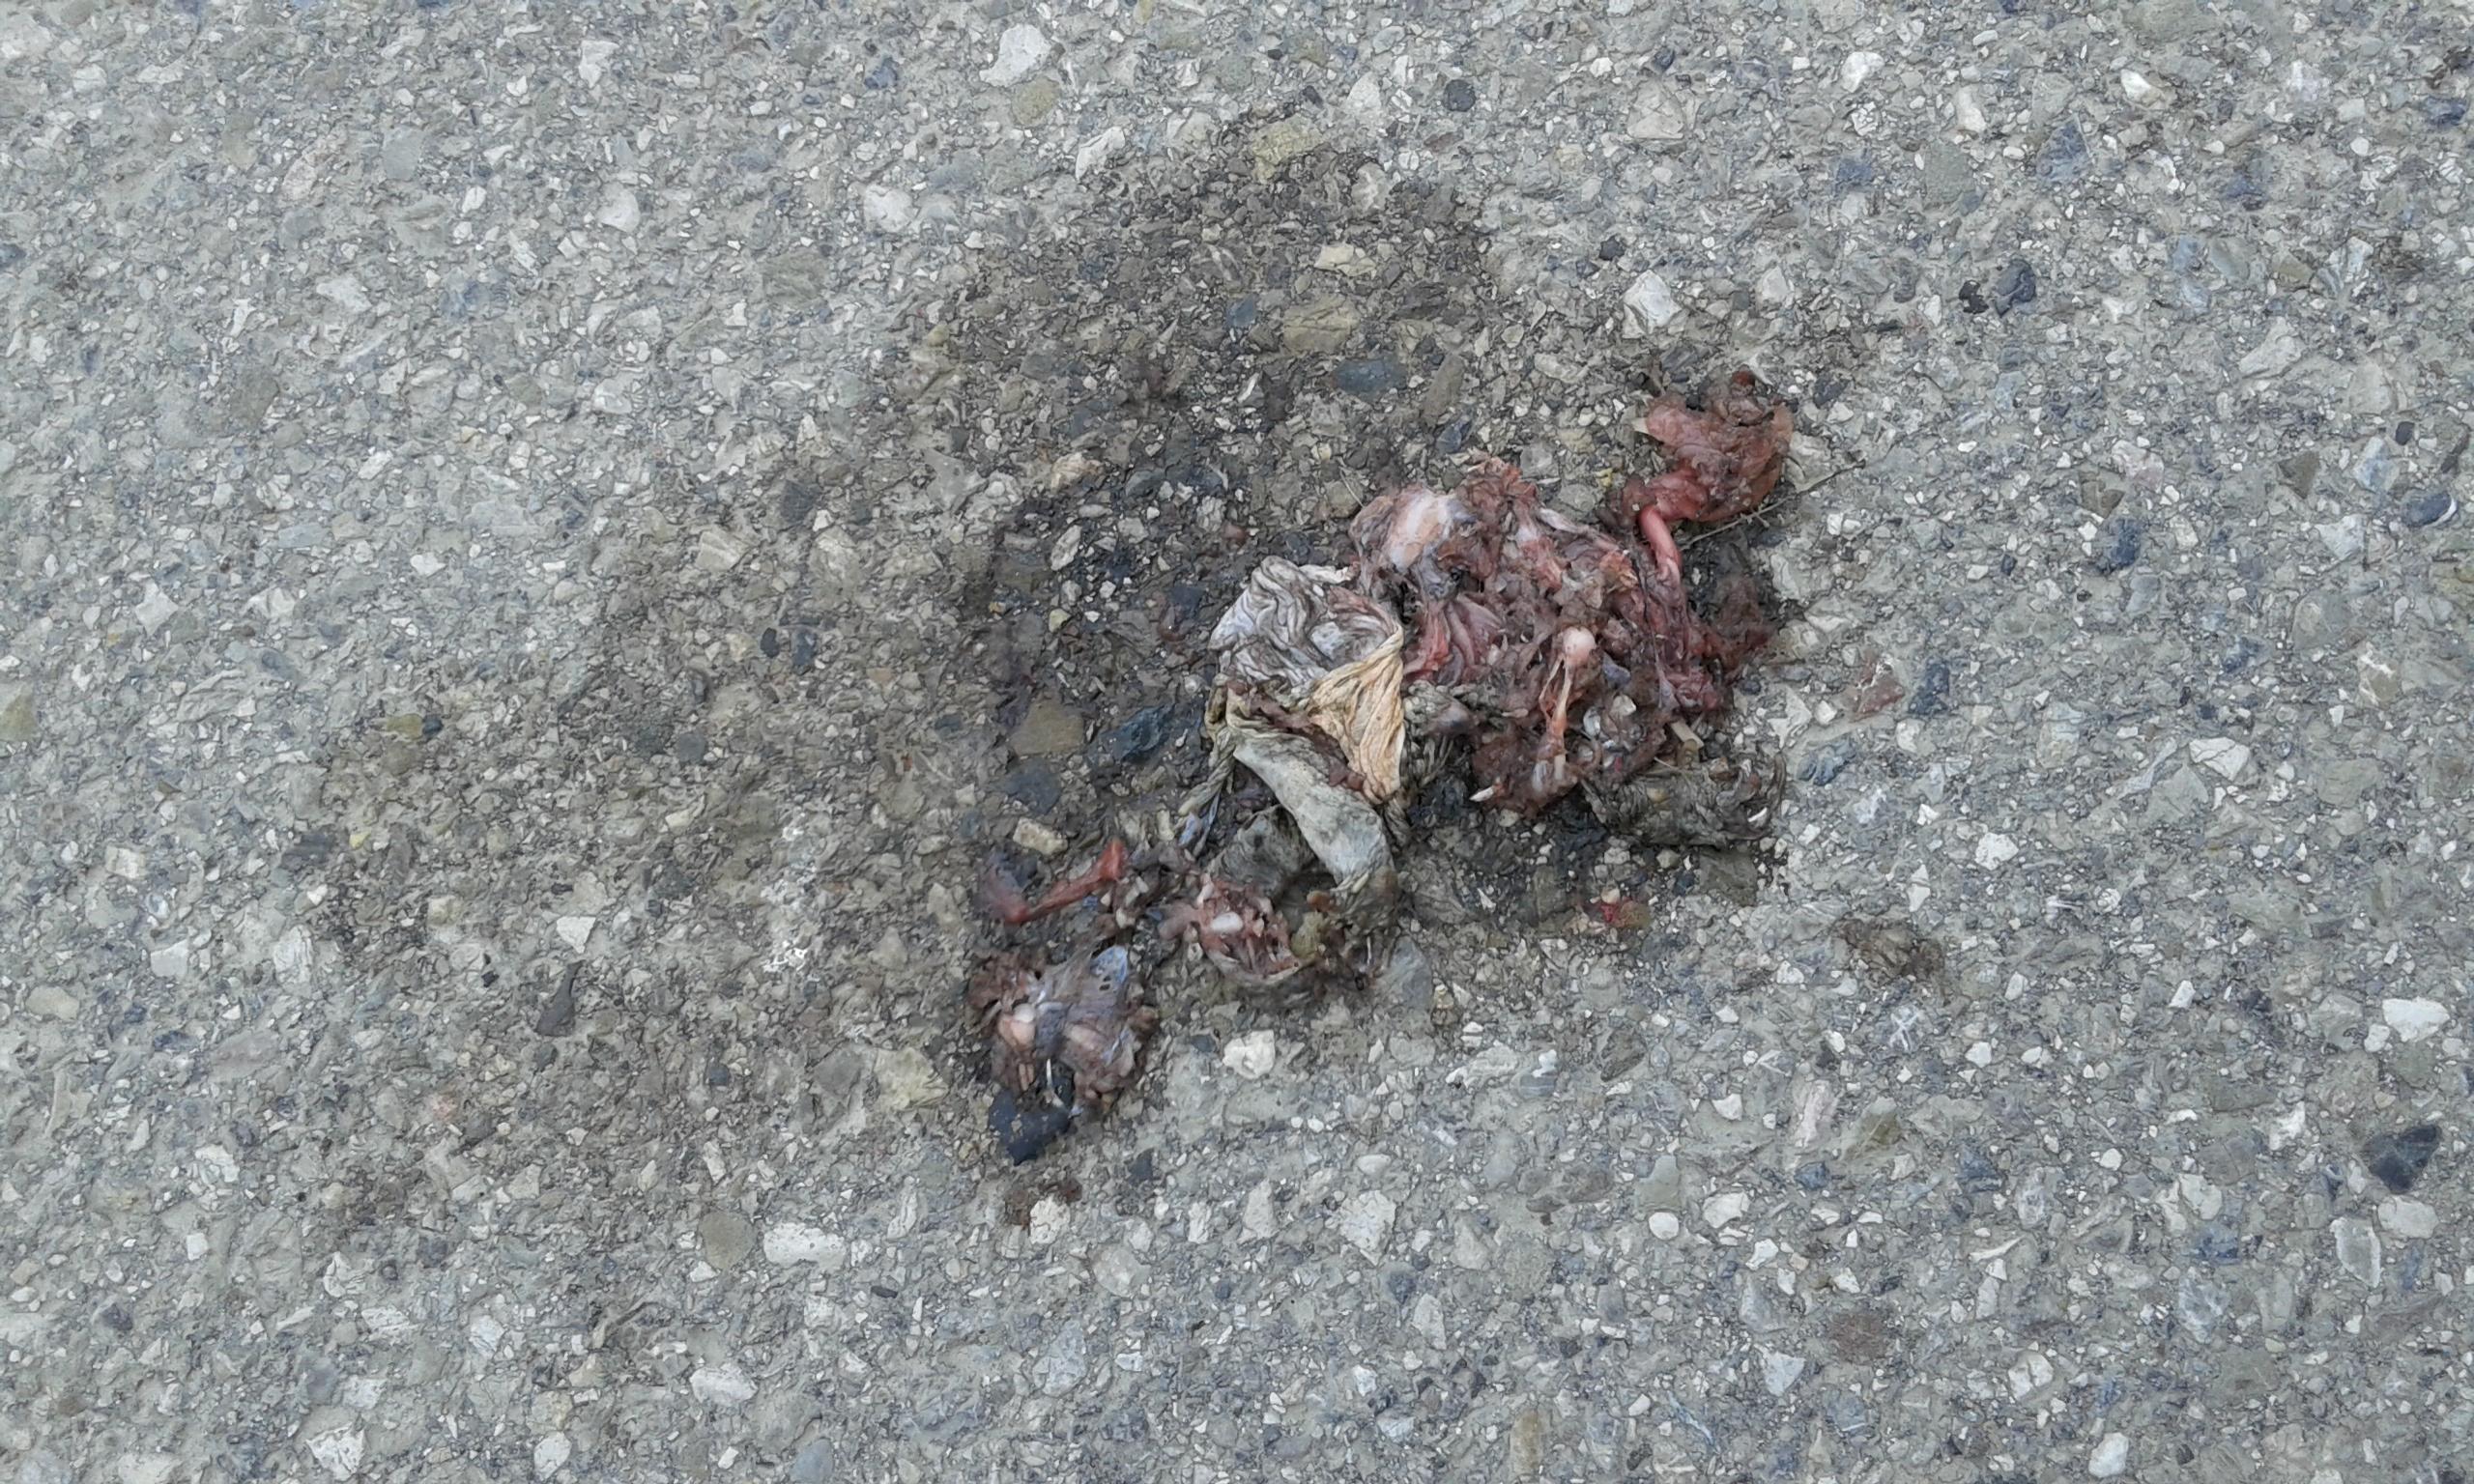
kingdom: Animalia
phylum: Chordata
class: Amphibia
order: Anura
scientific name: Anura
